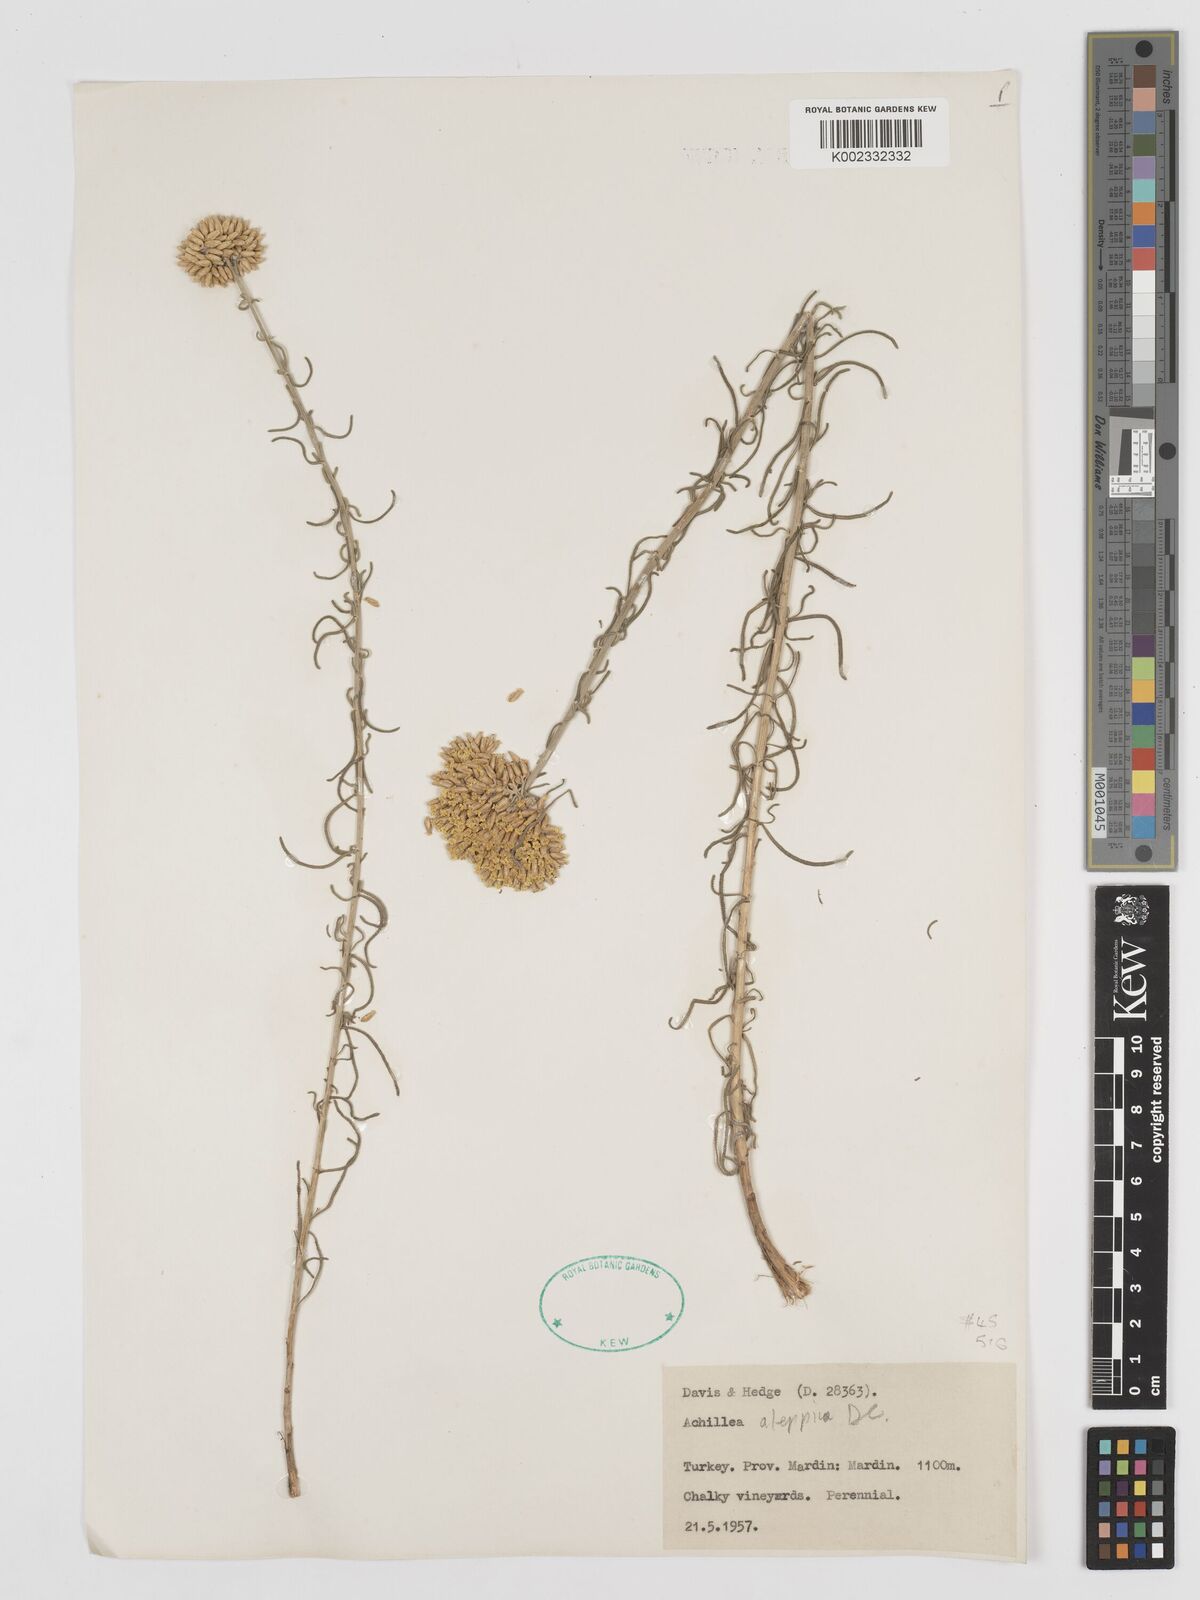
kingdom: Plantae
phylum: Tracheophyta
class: Magnoliopsida
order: Asterales
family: Asteraceae
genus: Achillea
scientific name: Achillea aleppica
